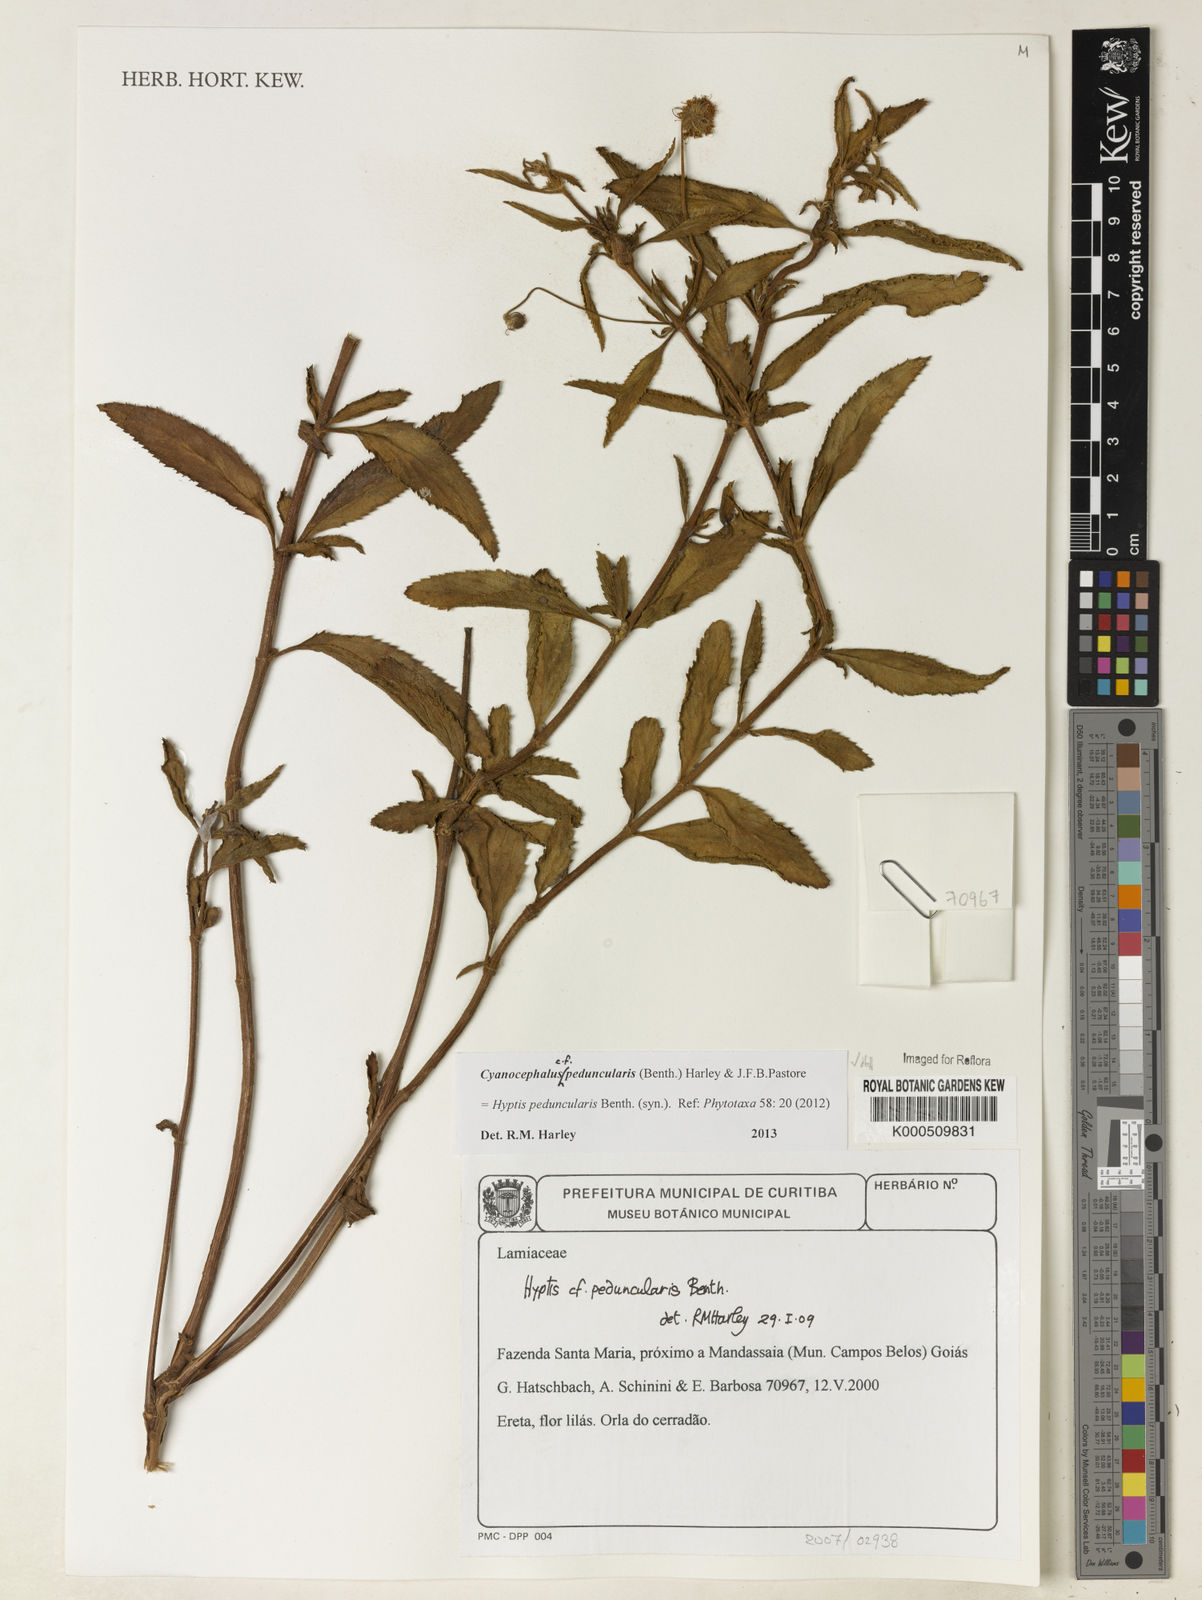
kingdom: Plantae
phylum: Tracheophyta
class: Magnoliopsida
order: Lamiales
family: Lamiaceae
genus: Cyanocephalus
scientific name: Cyanocephalus peduncularis
